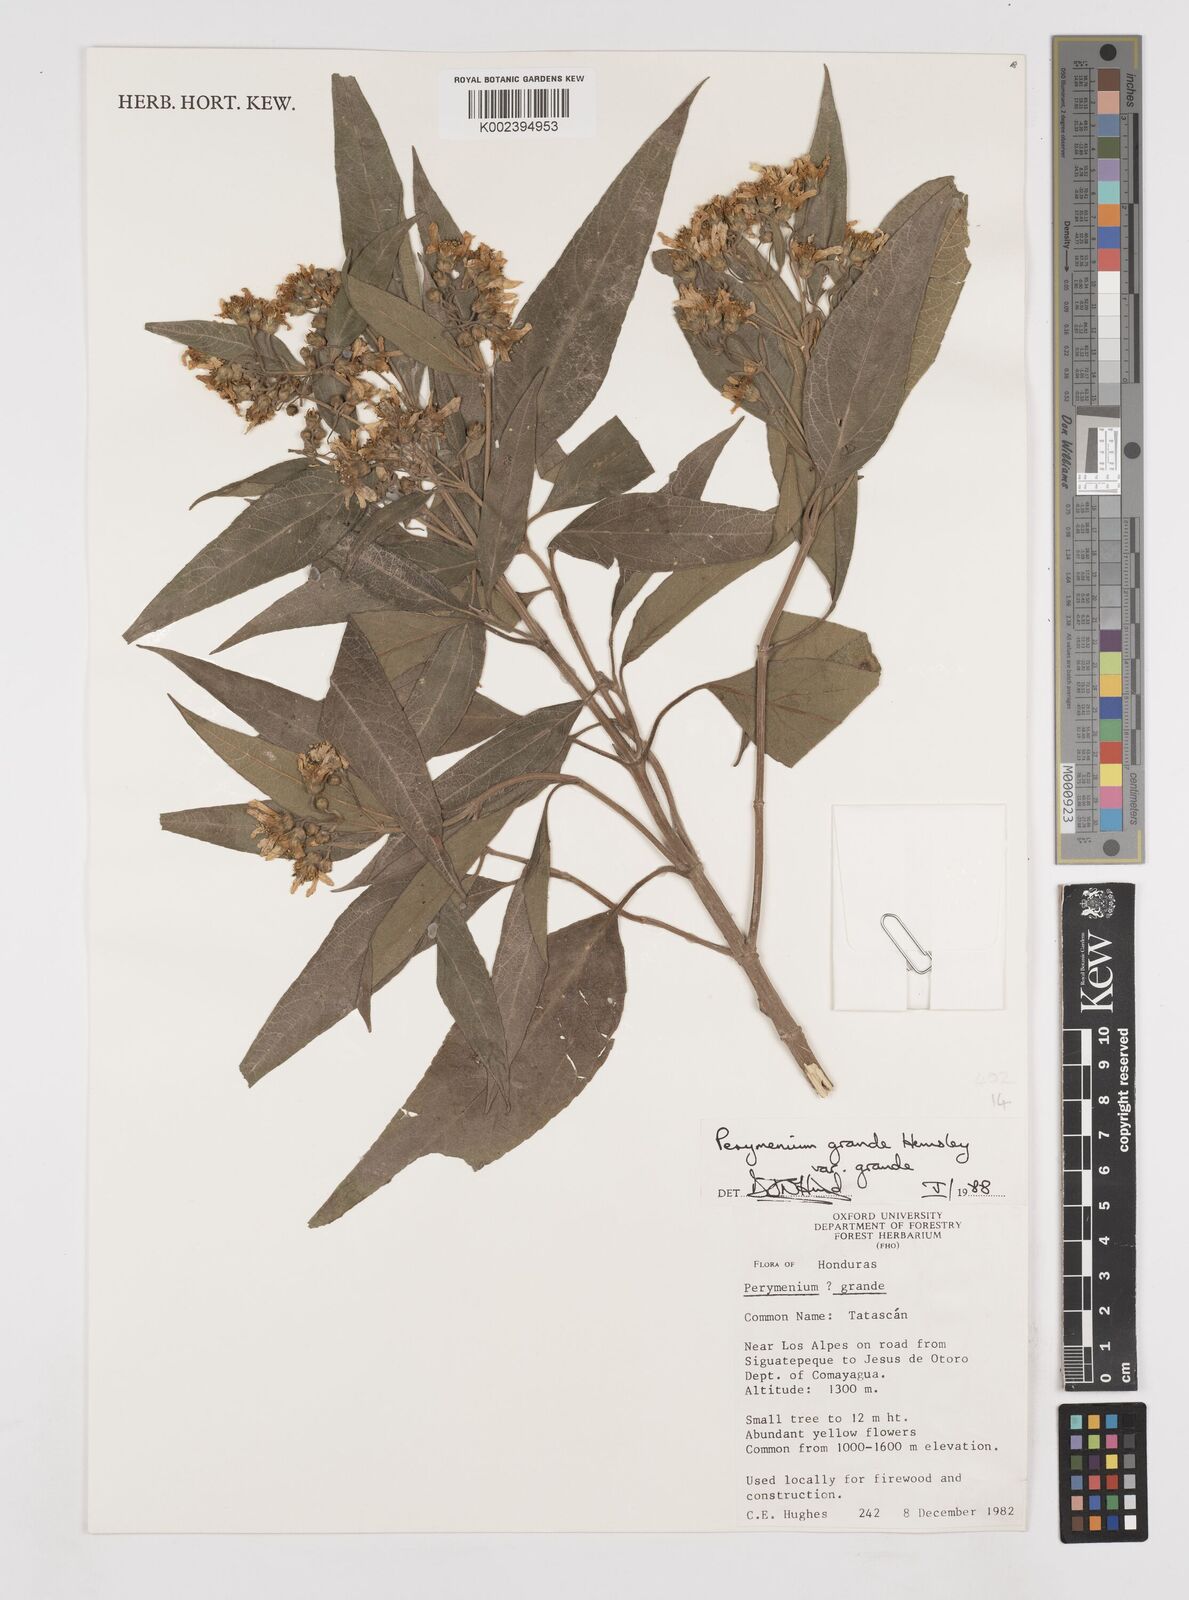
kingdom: Plantae
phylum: Tracheophyta
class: Magnoliopsida
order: Asterales
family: Asteraceae
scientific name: Asteraceae
